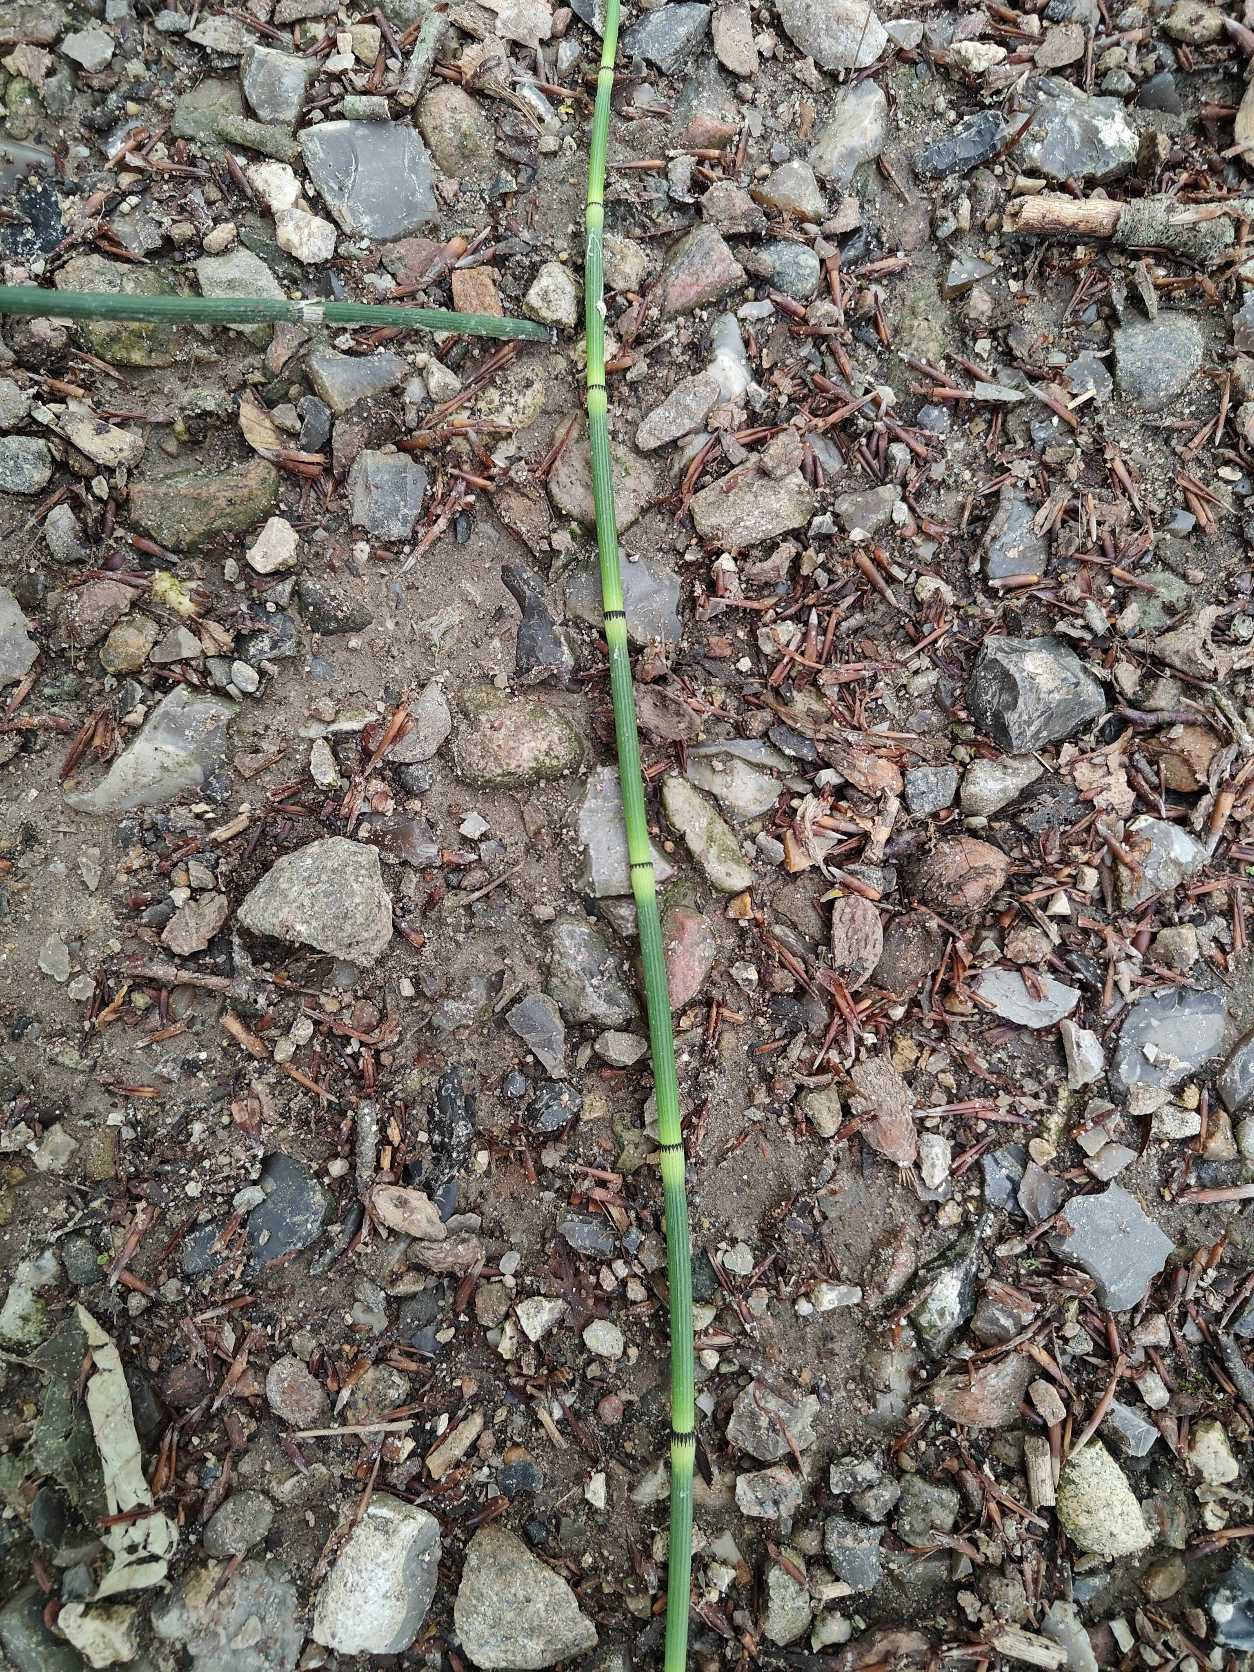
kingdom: Plantae
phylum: Tracheophyta
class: Polypodiopsida
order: Equisetales
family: Equisetaceae
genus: Equisetum
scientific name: Equisetum hyemale
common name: Skavgræs
